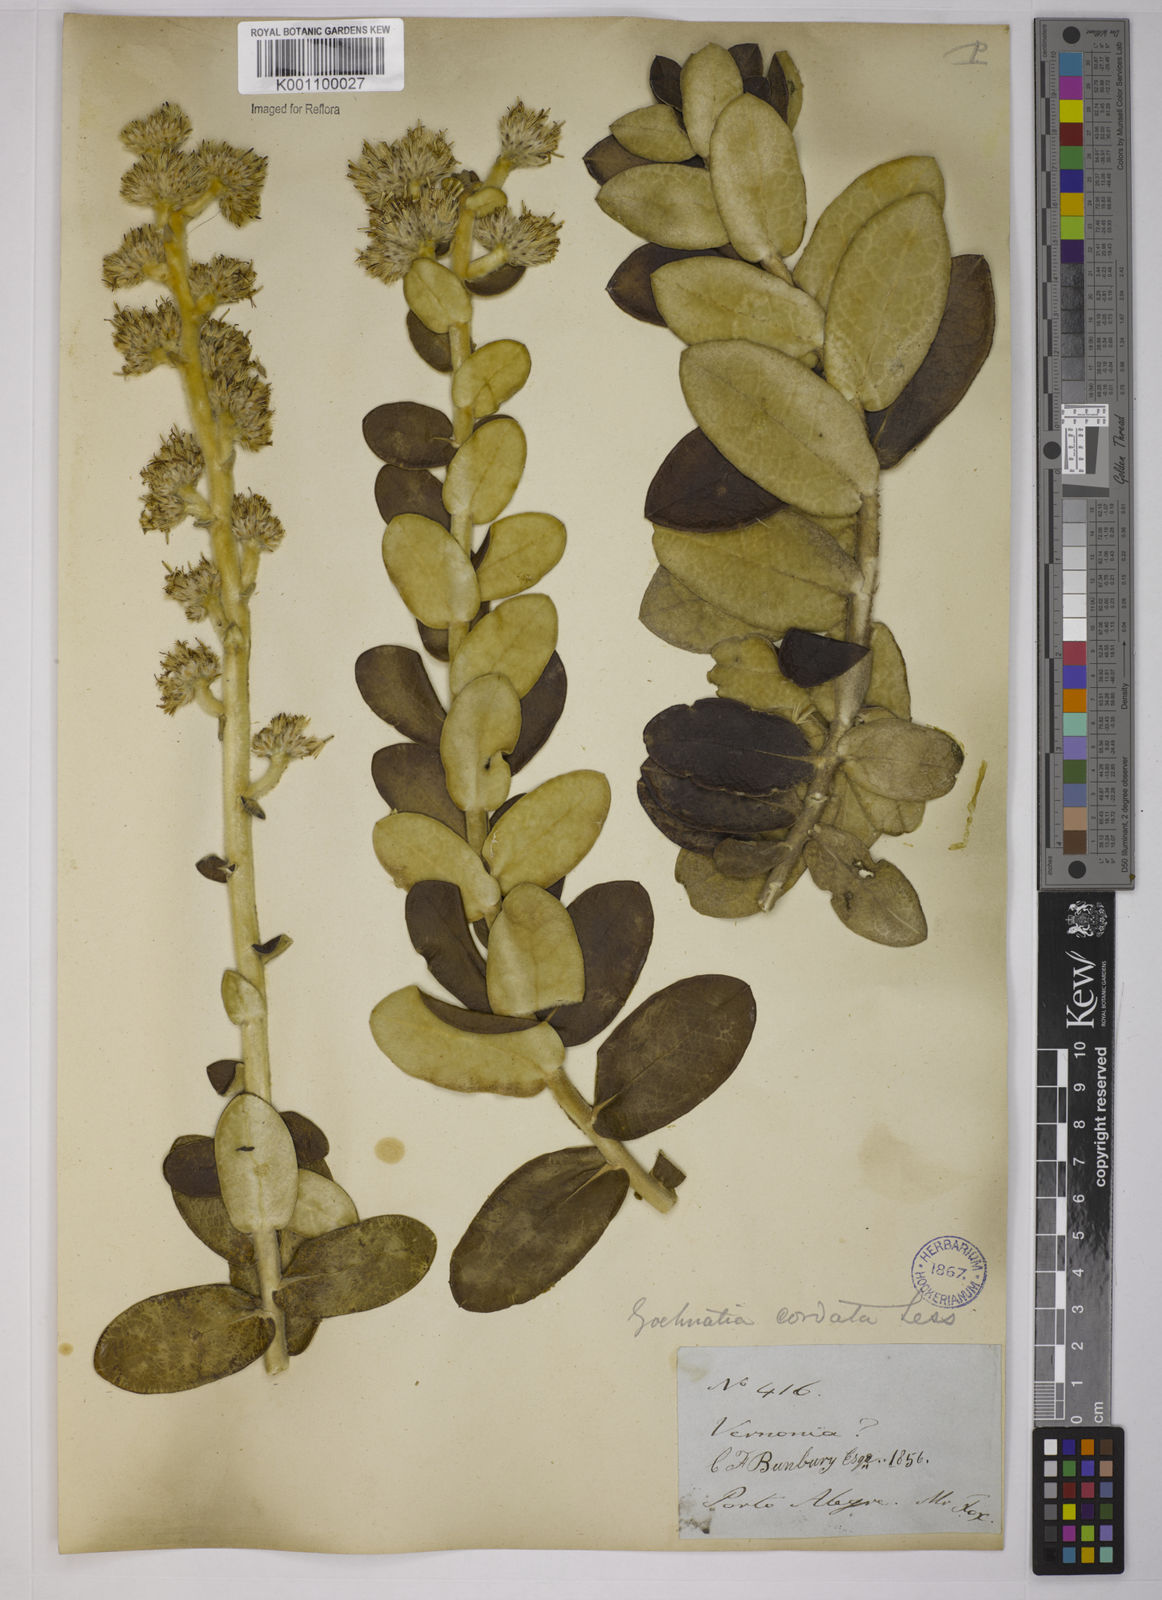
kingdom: Plantae
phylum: Tracheophyta
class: Magnoliopsida
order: Asterales
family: Asteraceae
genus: Gochnatia
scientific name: Gochnatia
